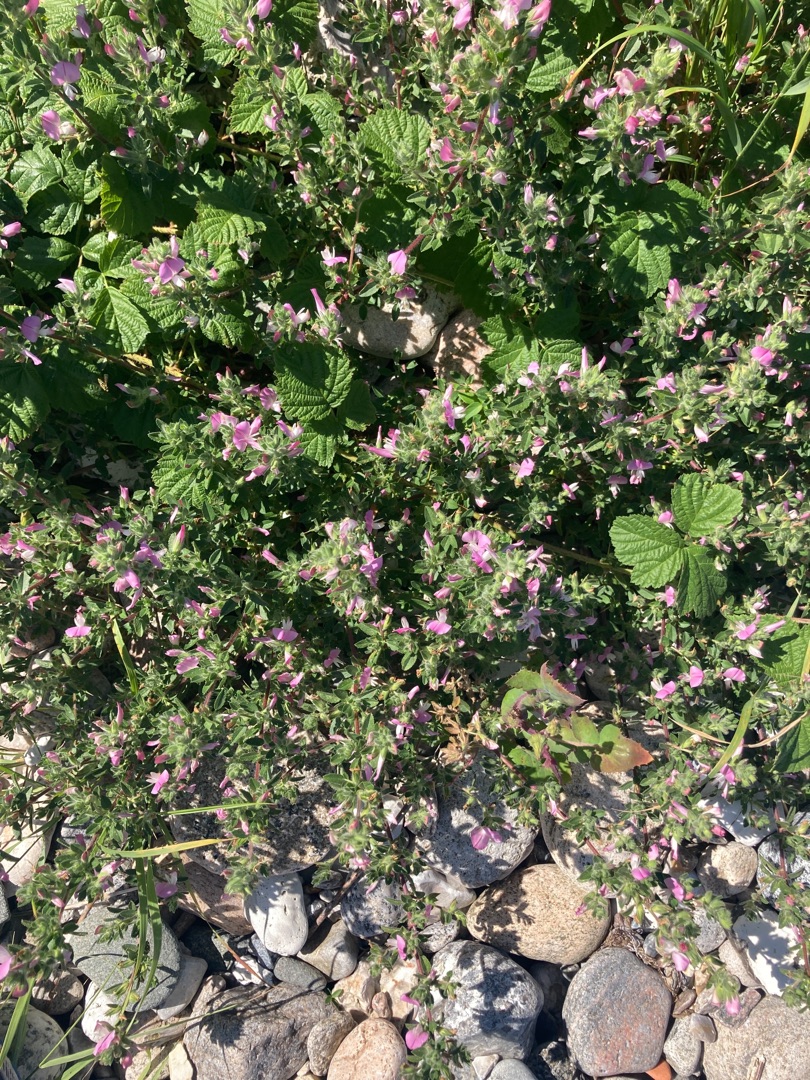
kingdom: Plantae
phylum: Tracheophyta
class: Magnoliopsida
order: Fabales
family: Fabaceae
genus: Ononis
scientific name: Ononis spinosa
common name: Krageklo
